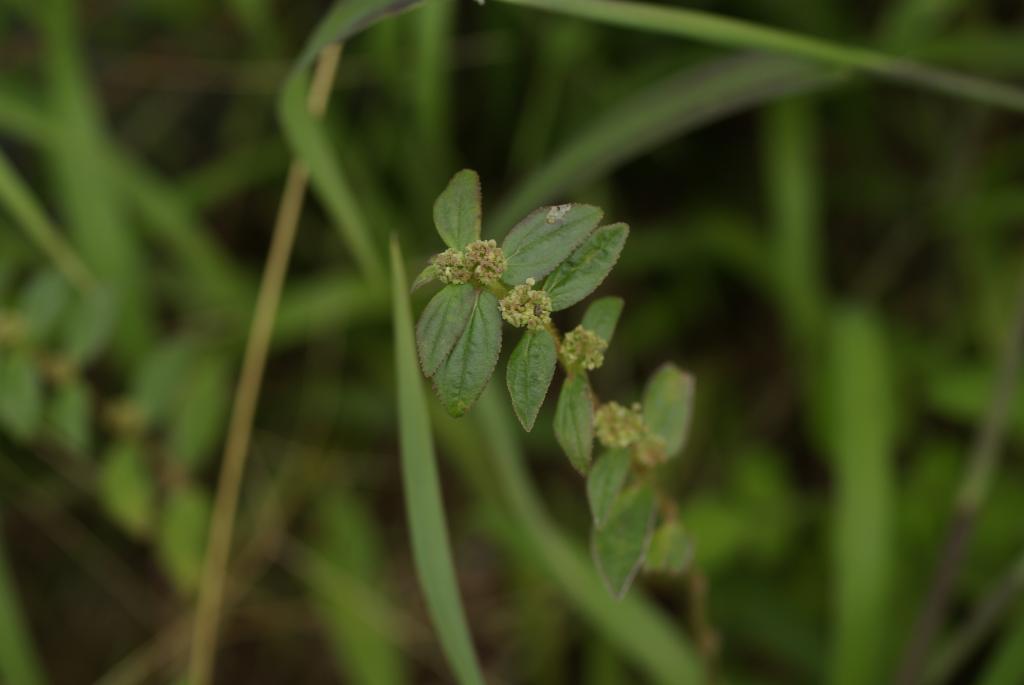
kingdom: Plantae
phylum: Tracheophyta
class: Magnoliopsida
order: Malpighiales
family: Euphorbiaceae
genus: Euphorbia
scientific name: Euphorbia hirta
